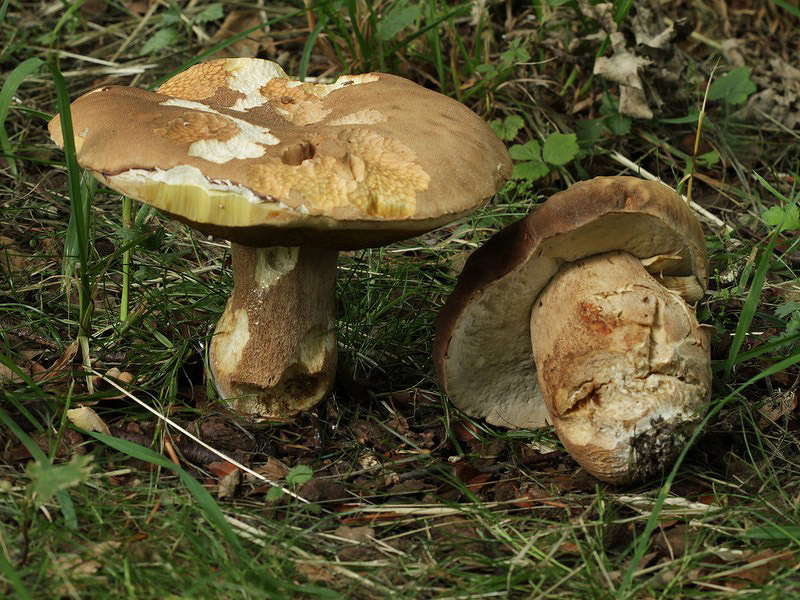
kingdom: Fungi
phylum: Basidiomycota
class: Agaricomycetes
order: Boletales
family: Boletaceae
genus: Boletus
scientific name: Boletus reticulatus
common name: sommer-rørhat
